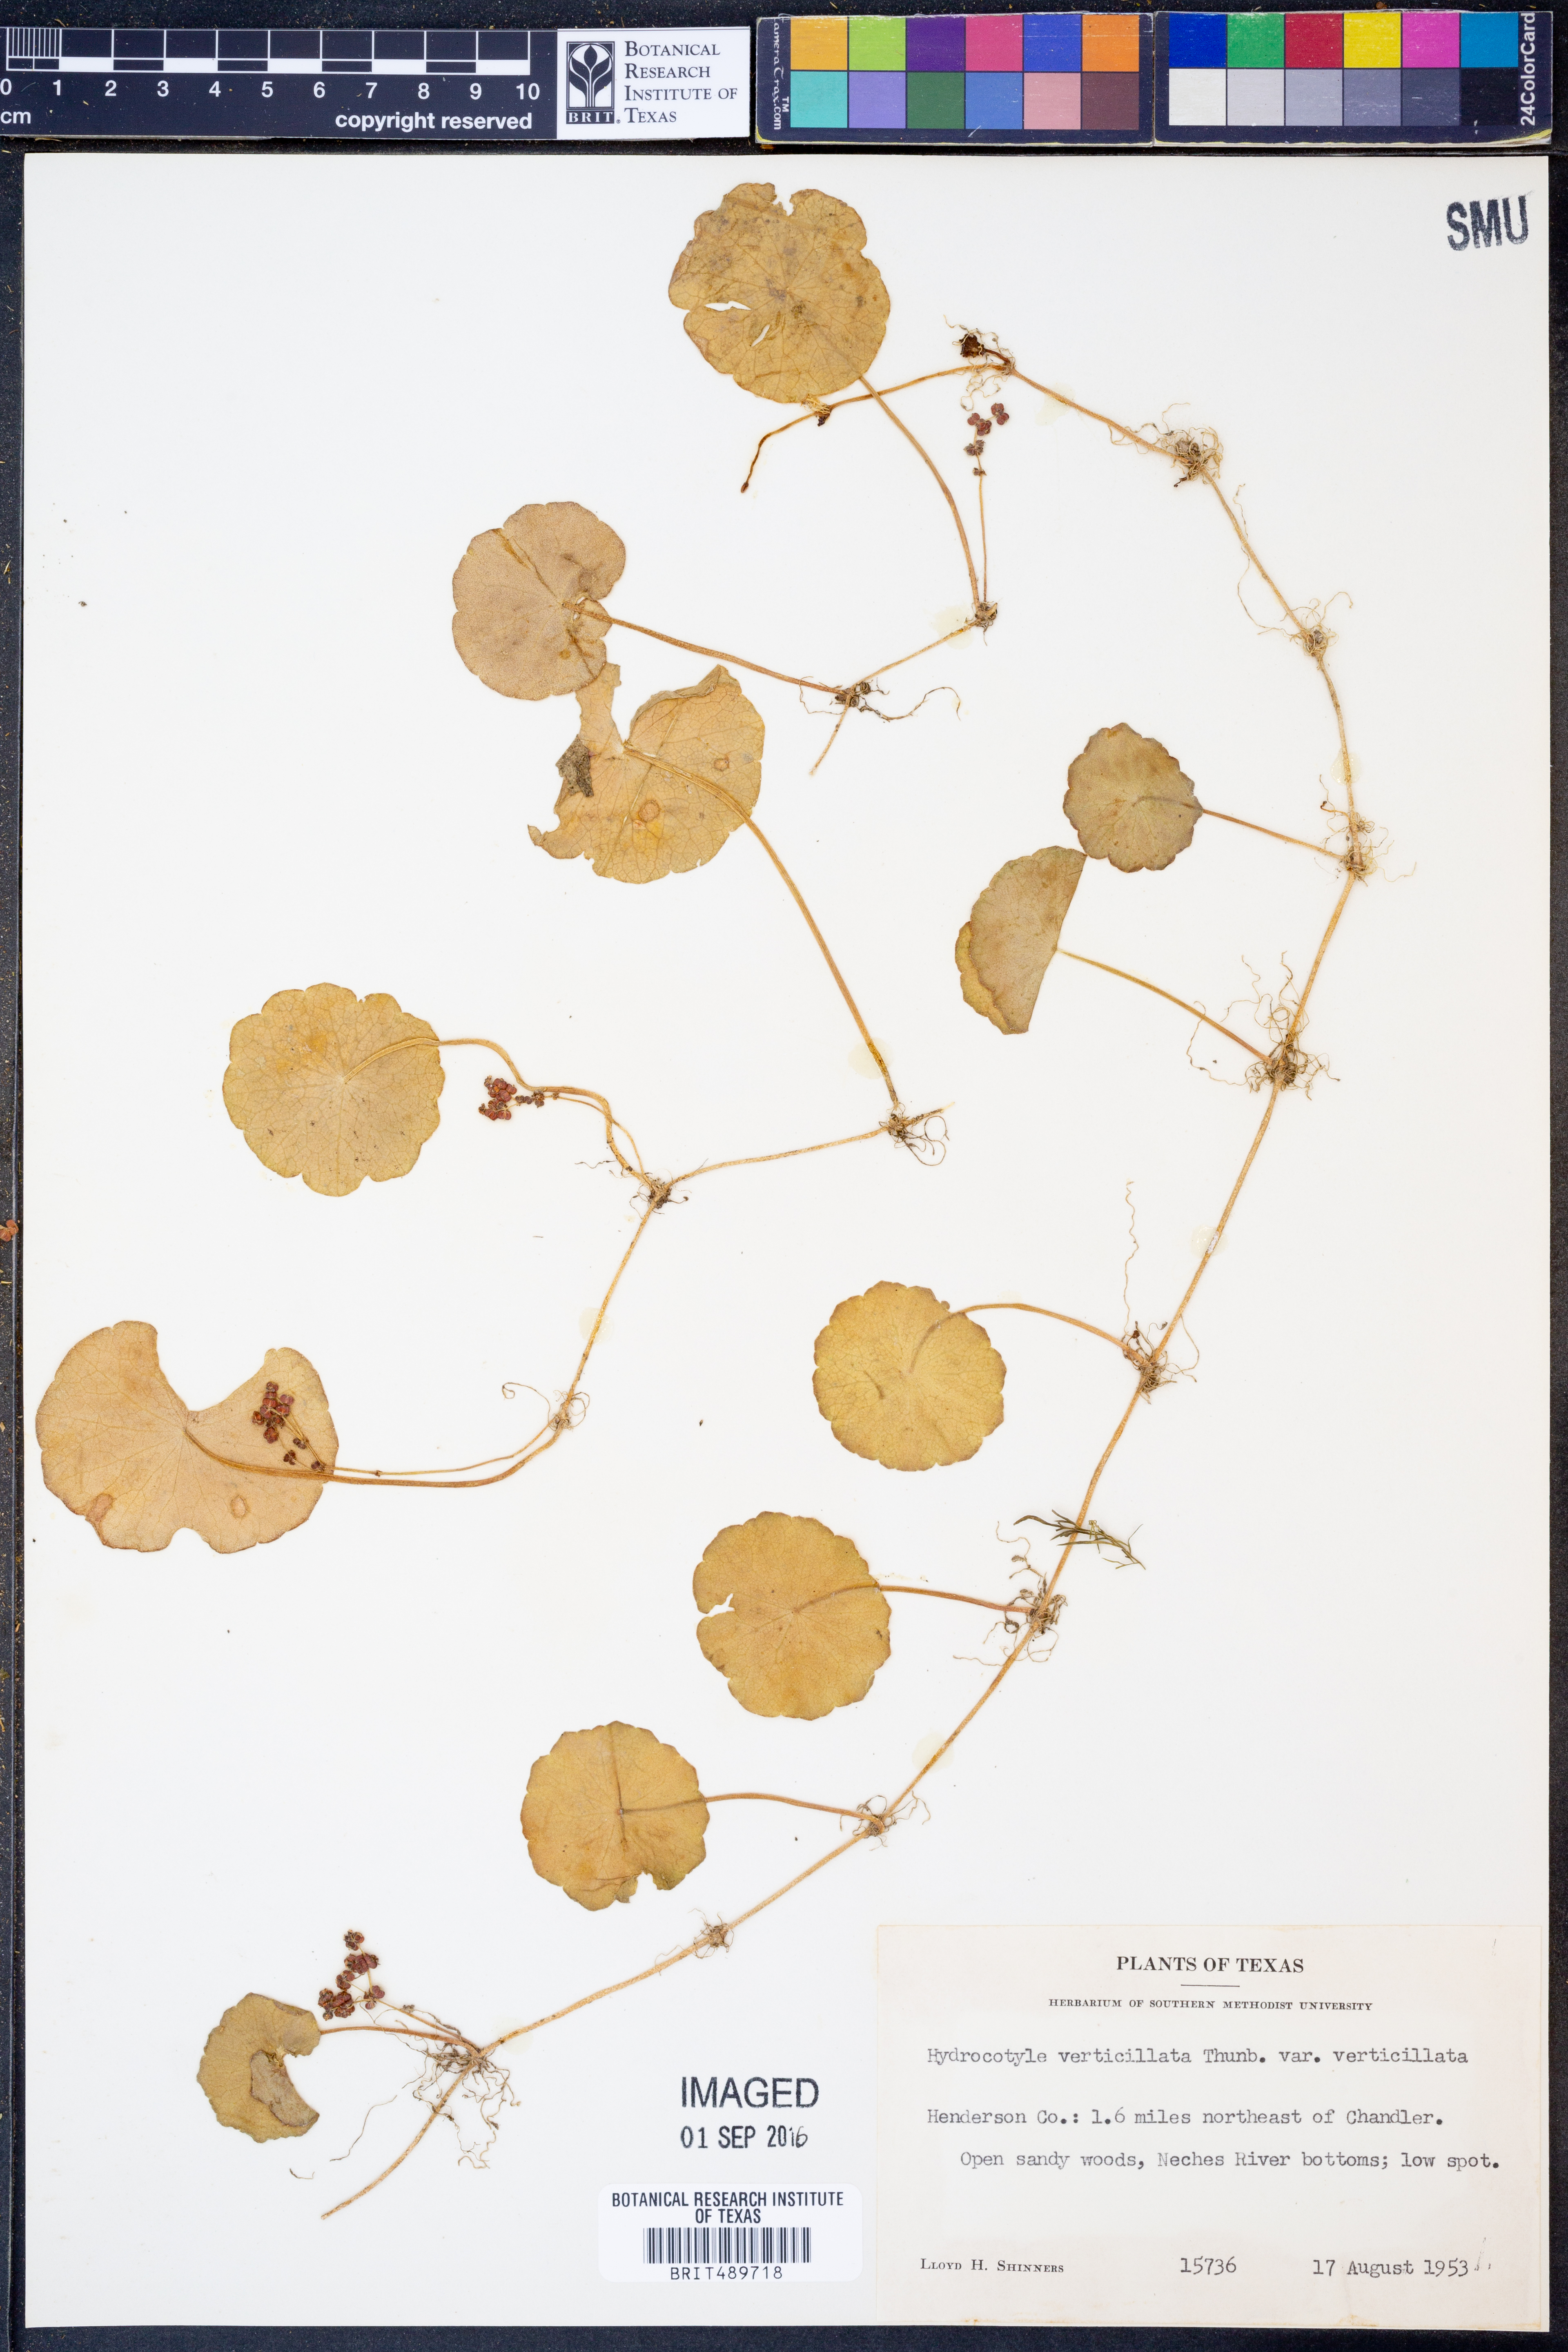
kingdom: Plantae
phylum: Tracheophyta
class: Magnoliopsida
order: Apiales
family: Araliaceae
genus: Hydrocotyle
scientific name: Hydrocotyle verticillata
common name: Whorled marshpennywort
